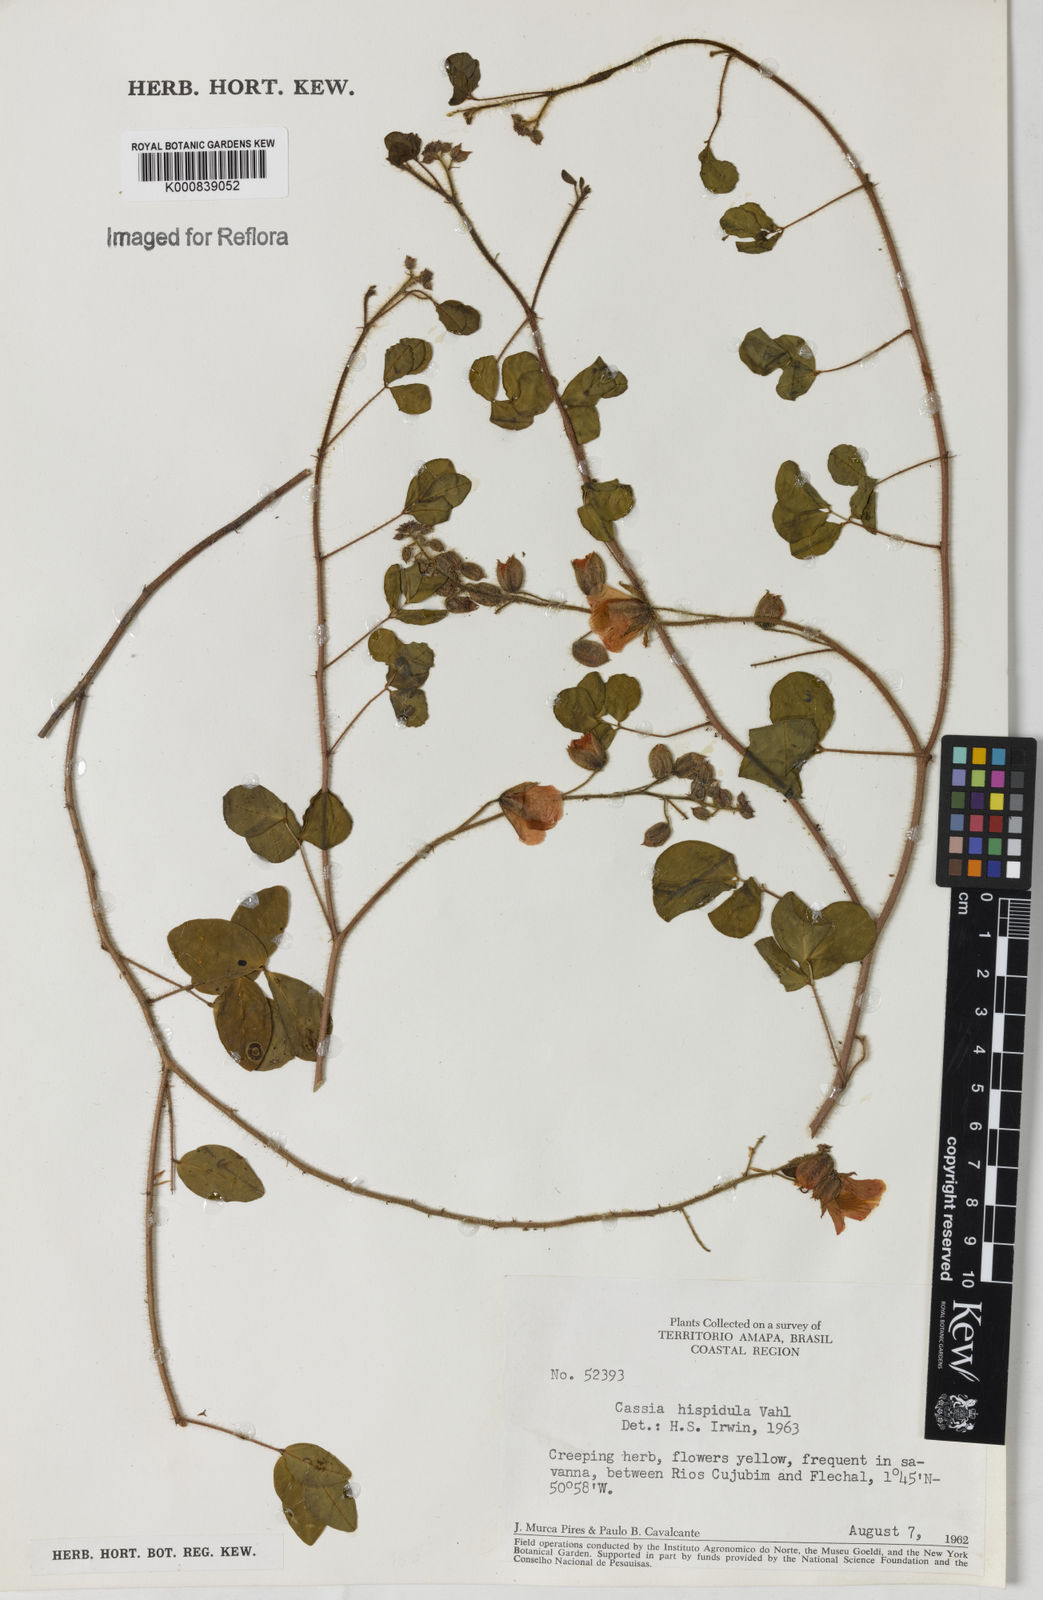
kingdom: Plantae
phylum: Tracheophyta
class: Magnoliopsida
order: Fabales
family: Fabaceae
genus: Chamaecrista
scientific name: Chamaecrista hispidula
